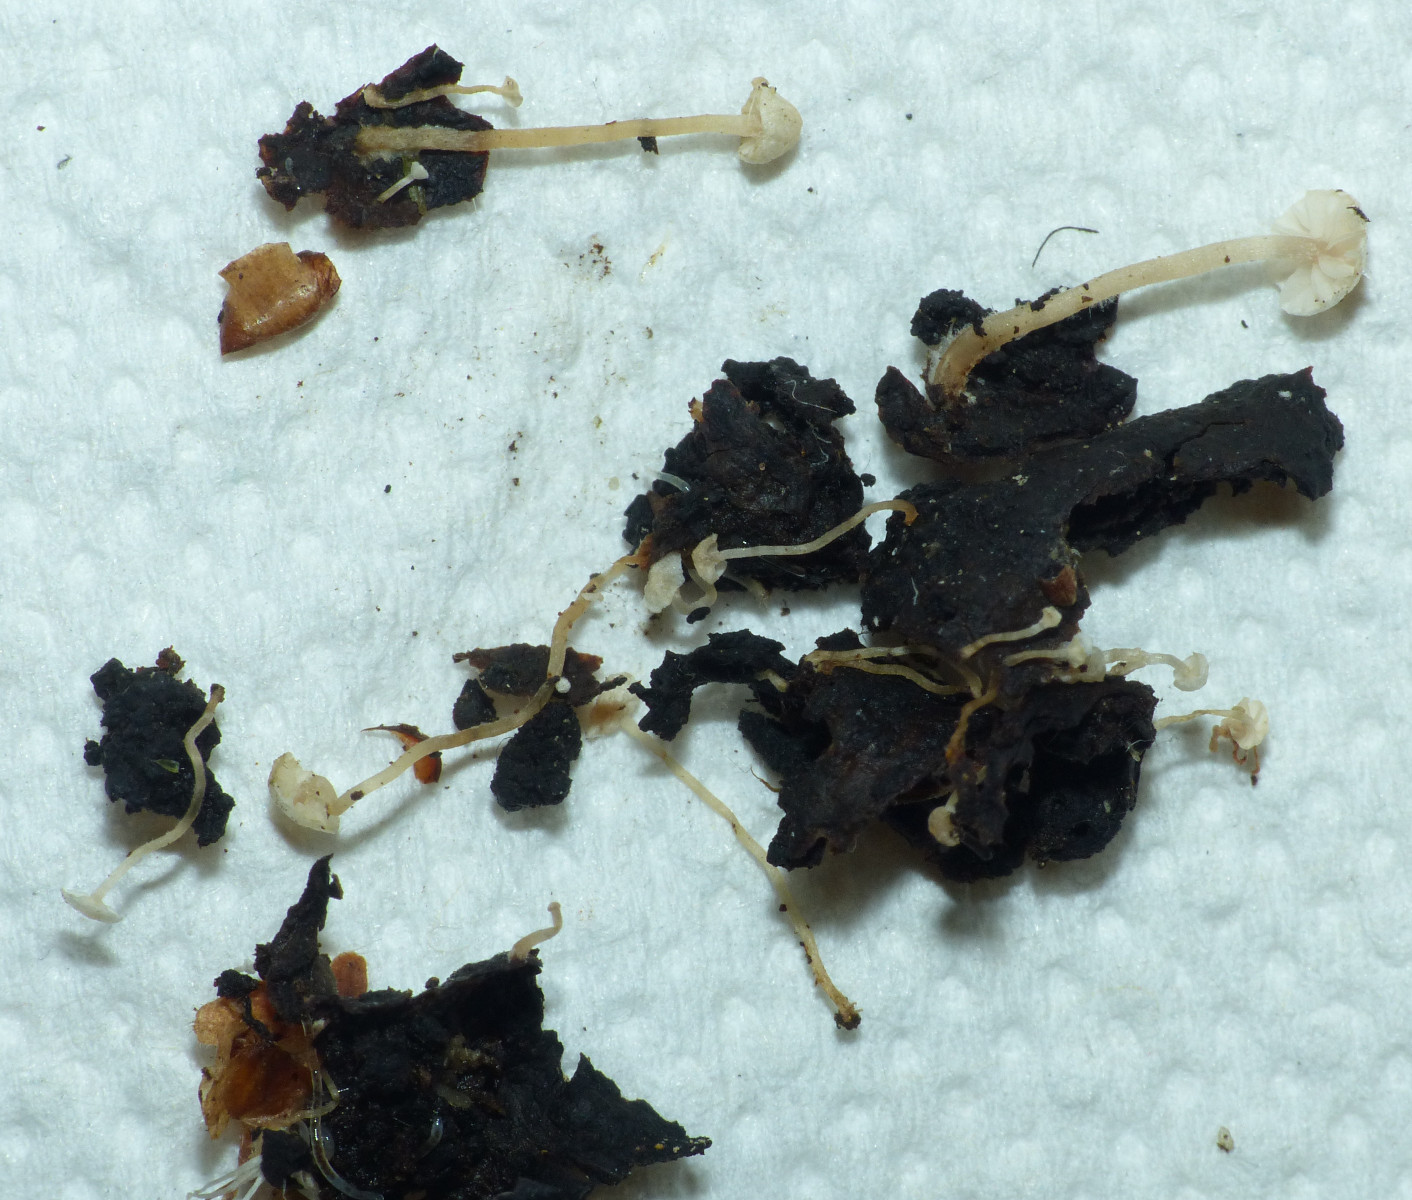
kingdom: Fungi
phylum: Basidiomycota
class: Agaricomycetes
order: Agaricales
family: Tricholomataceae
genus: Collybia
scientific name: Collybia cirrhata
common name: silke-lighat
